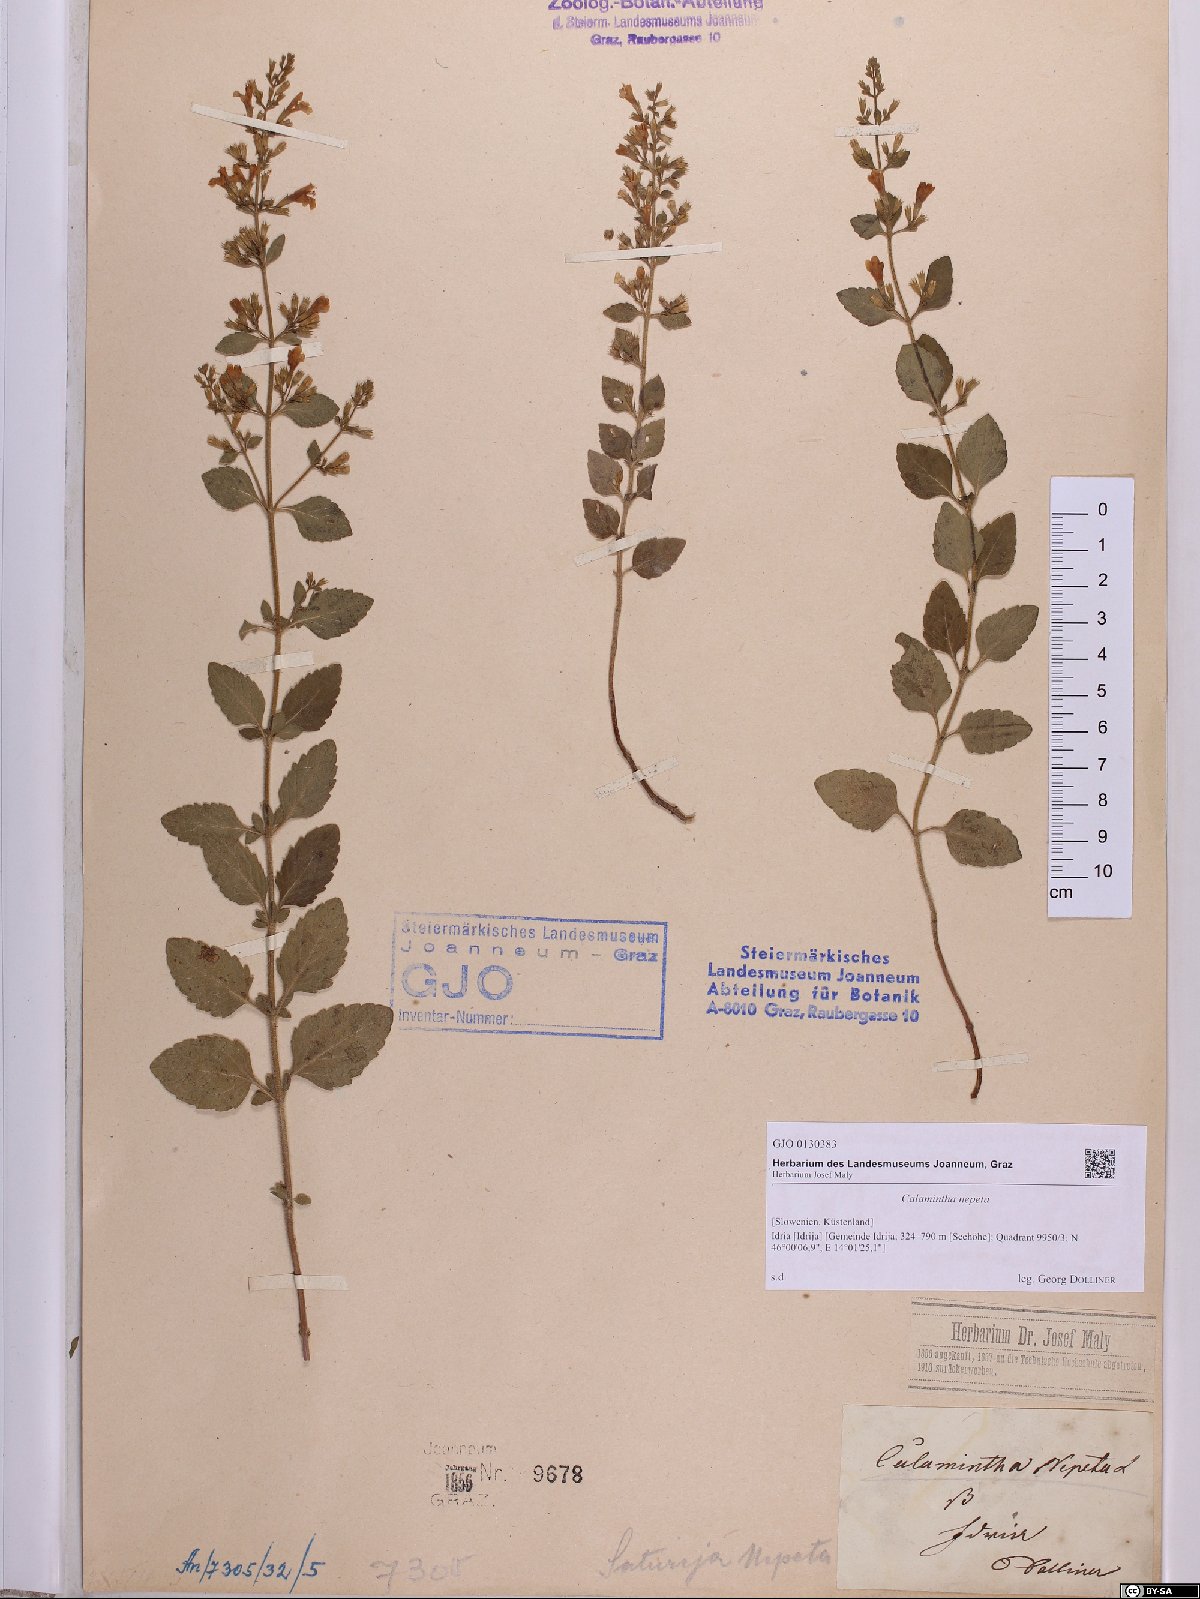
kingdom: Plantae
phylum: Tracheophyta
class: Magnoliopsida
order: Lamiales
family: Lamiaceae
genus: Clinopodium
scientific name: Clinopodium nepeta
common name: Lesser calamint
